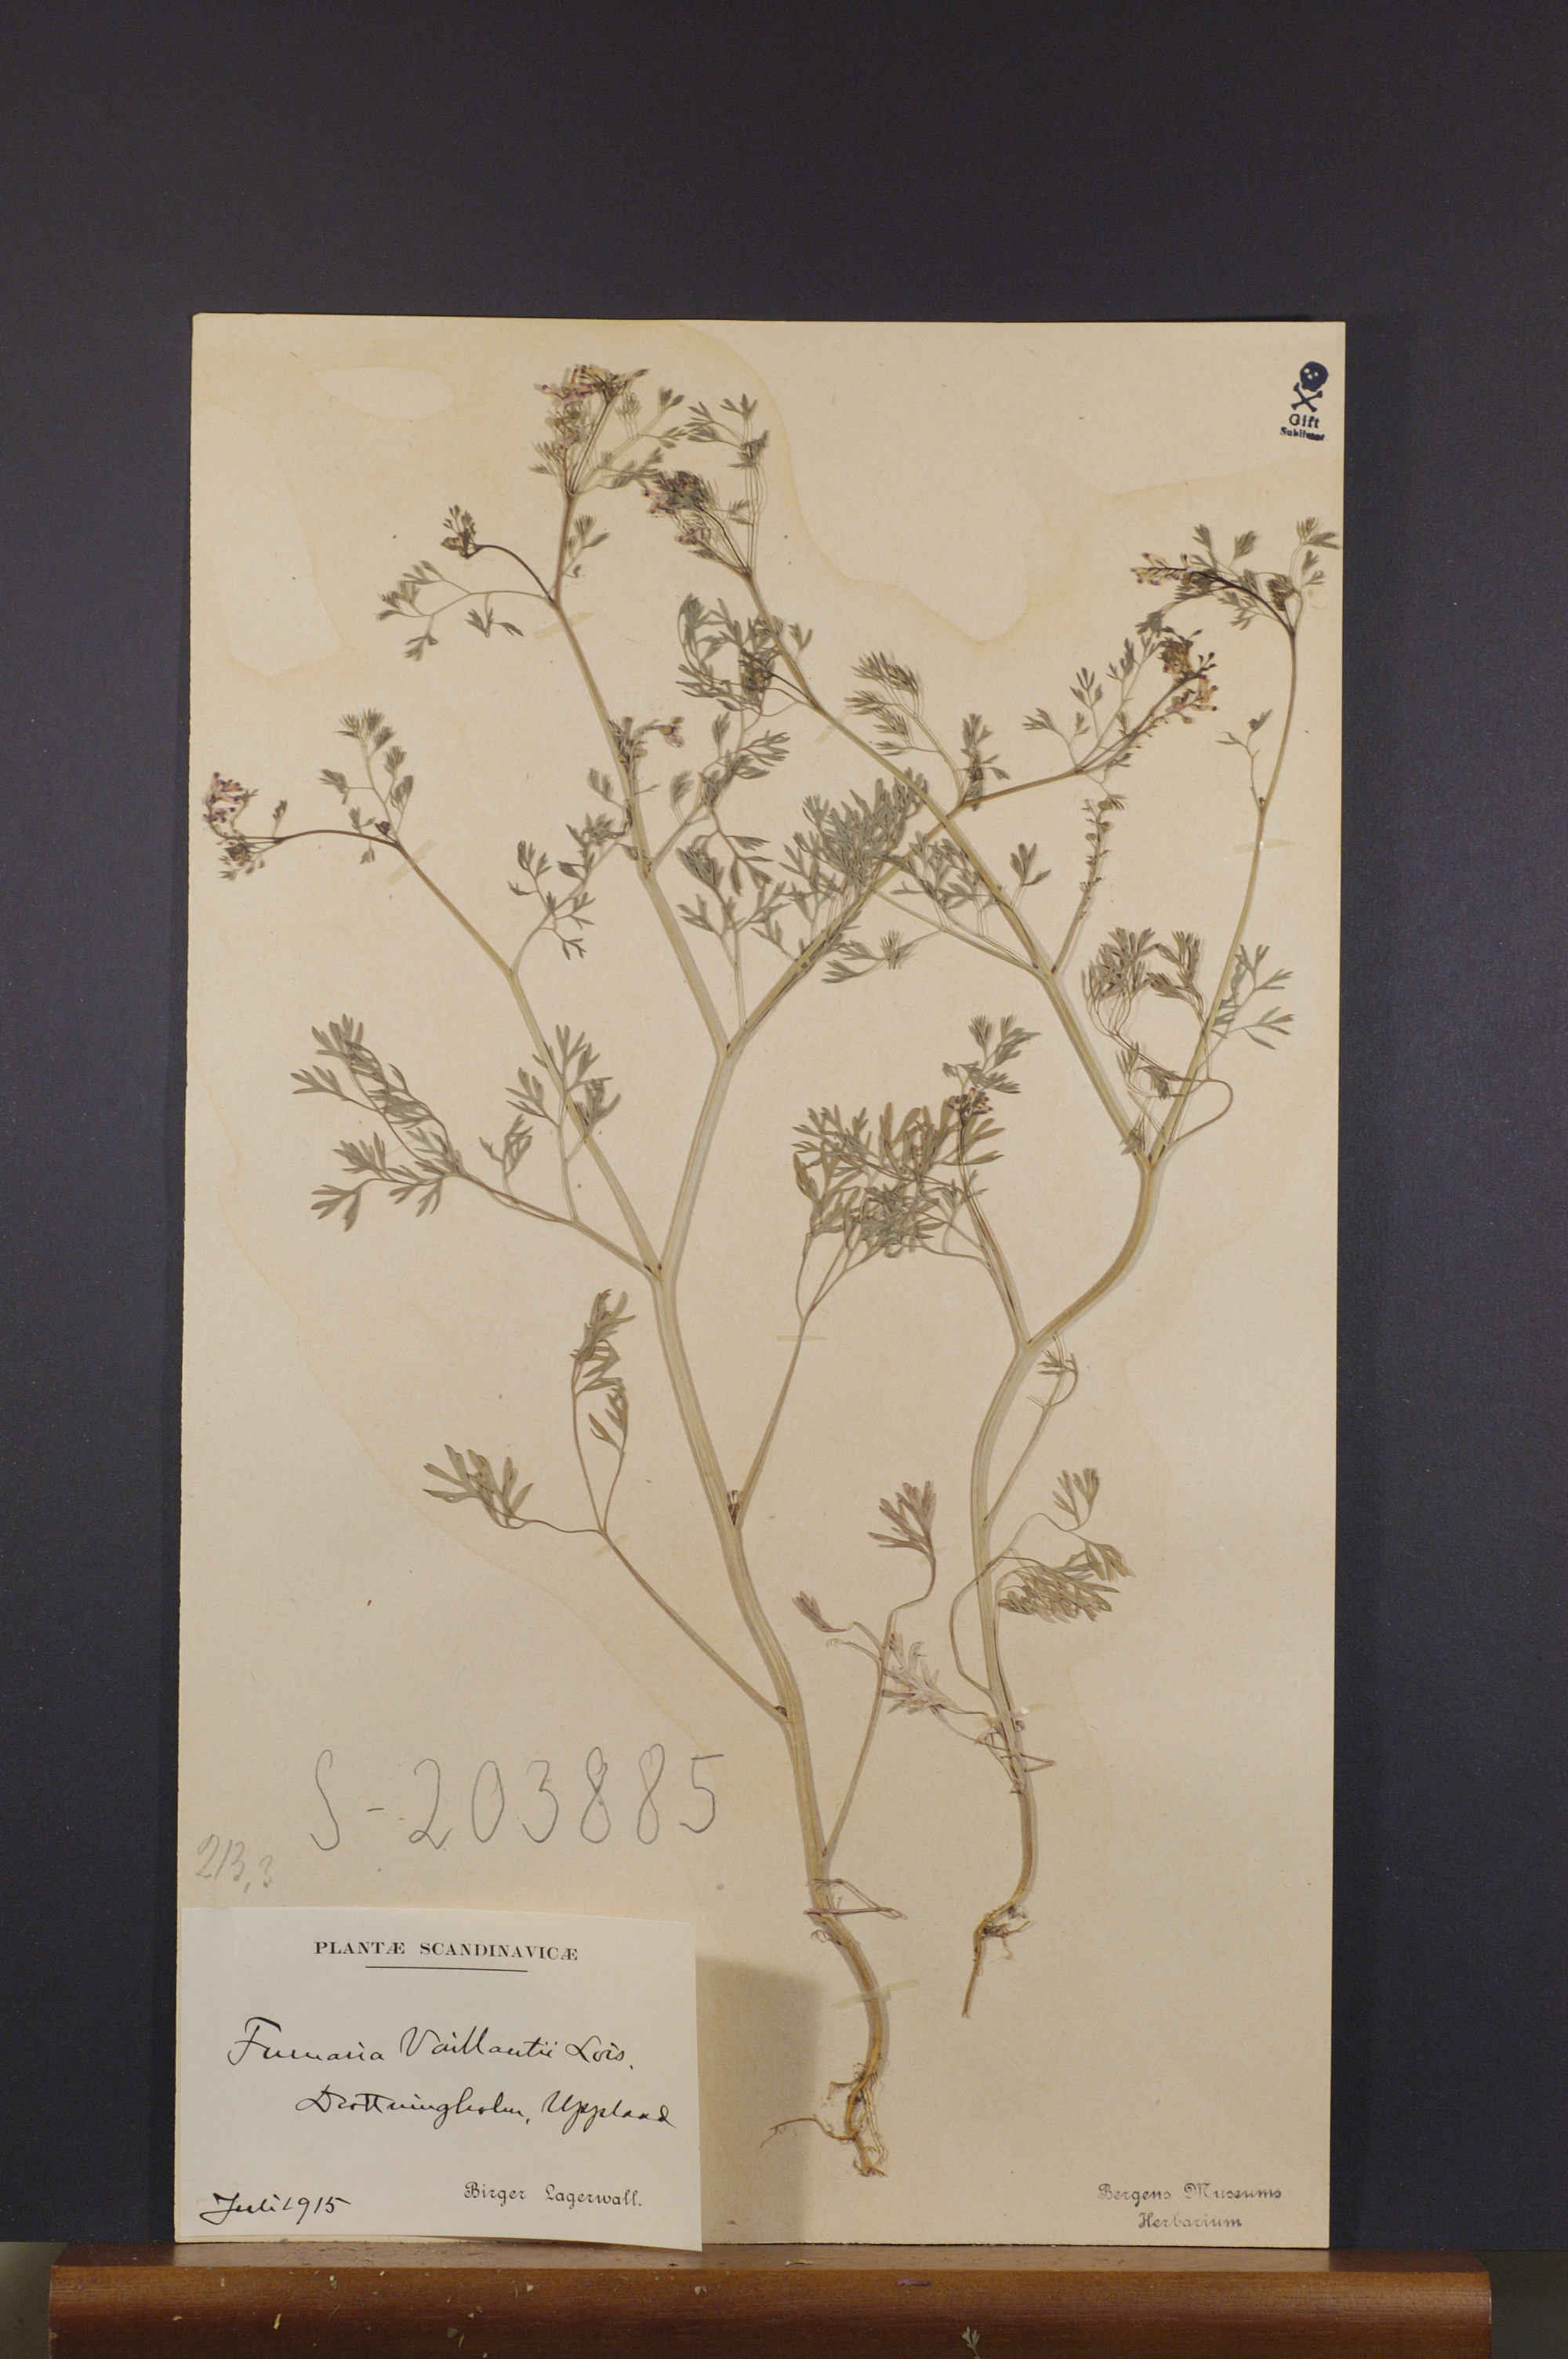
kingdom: Plantae
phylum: Tracheophyta
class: Magnoliopsida
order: Ranunculales
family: Papaveraceae
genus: Fumaria
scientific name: Fumaria vaillantii
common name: Few-flowered fumitory
